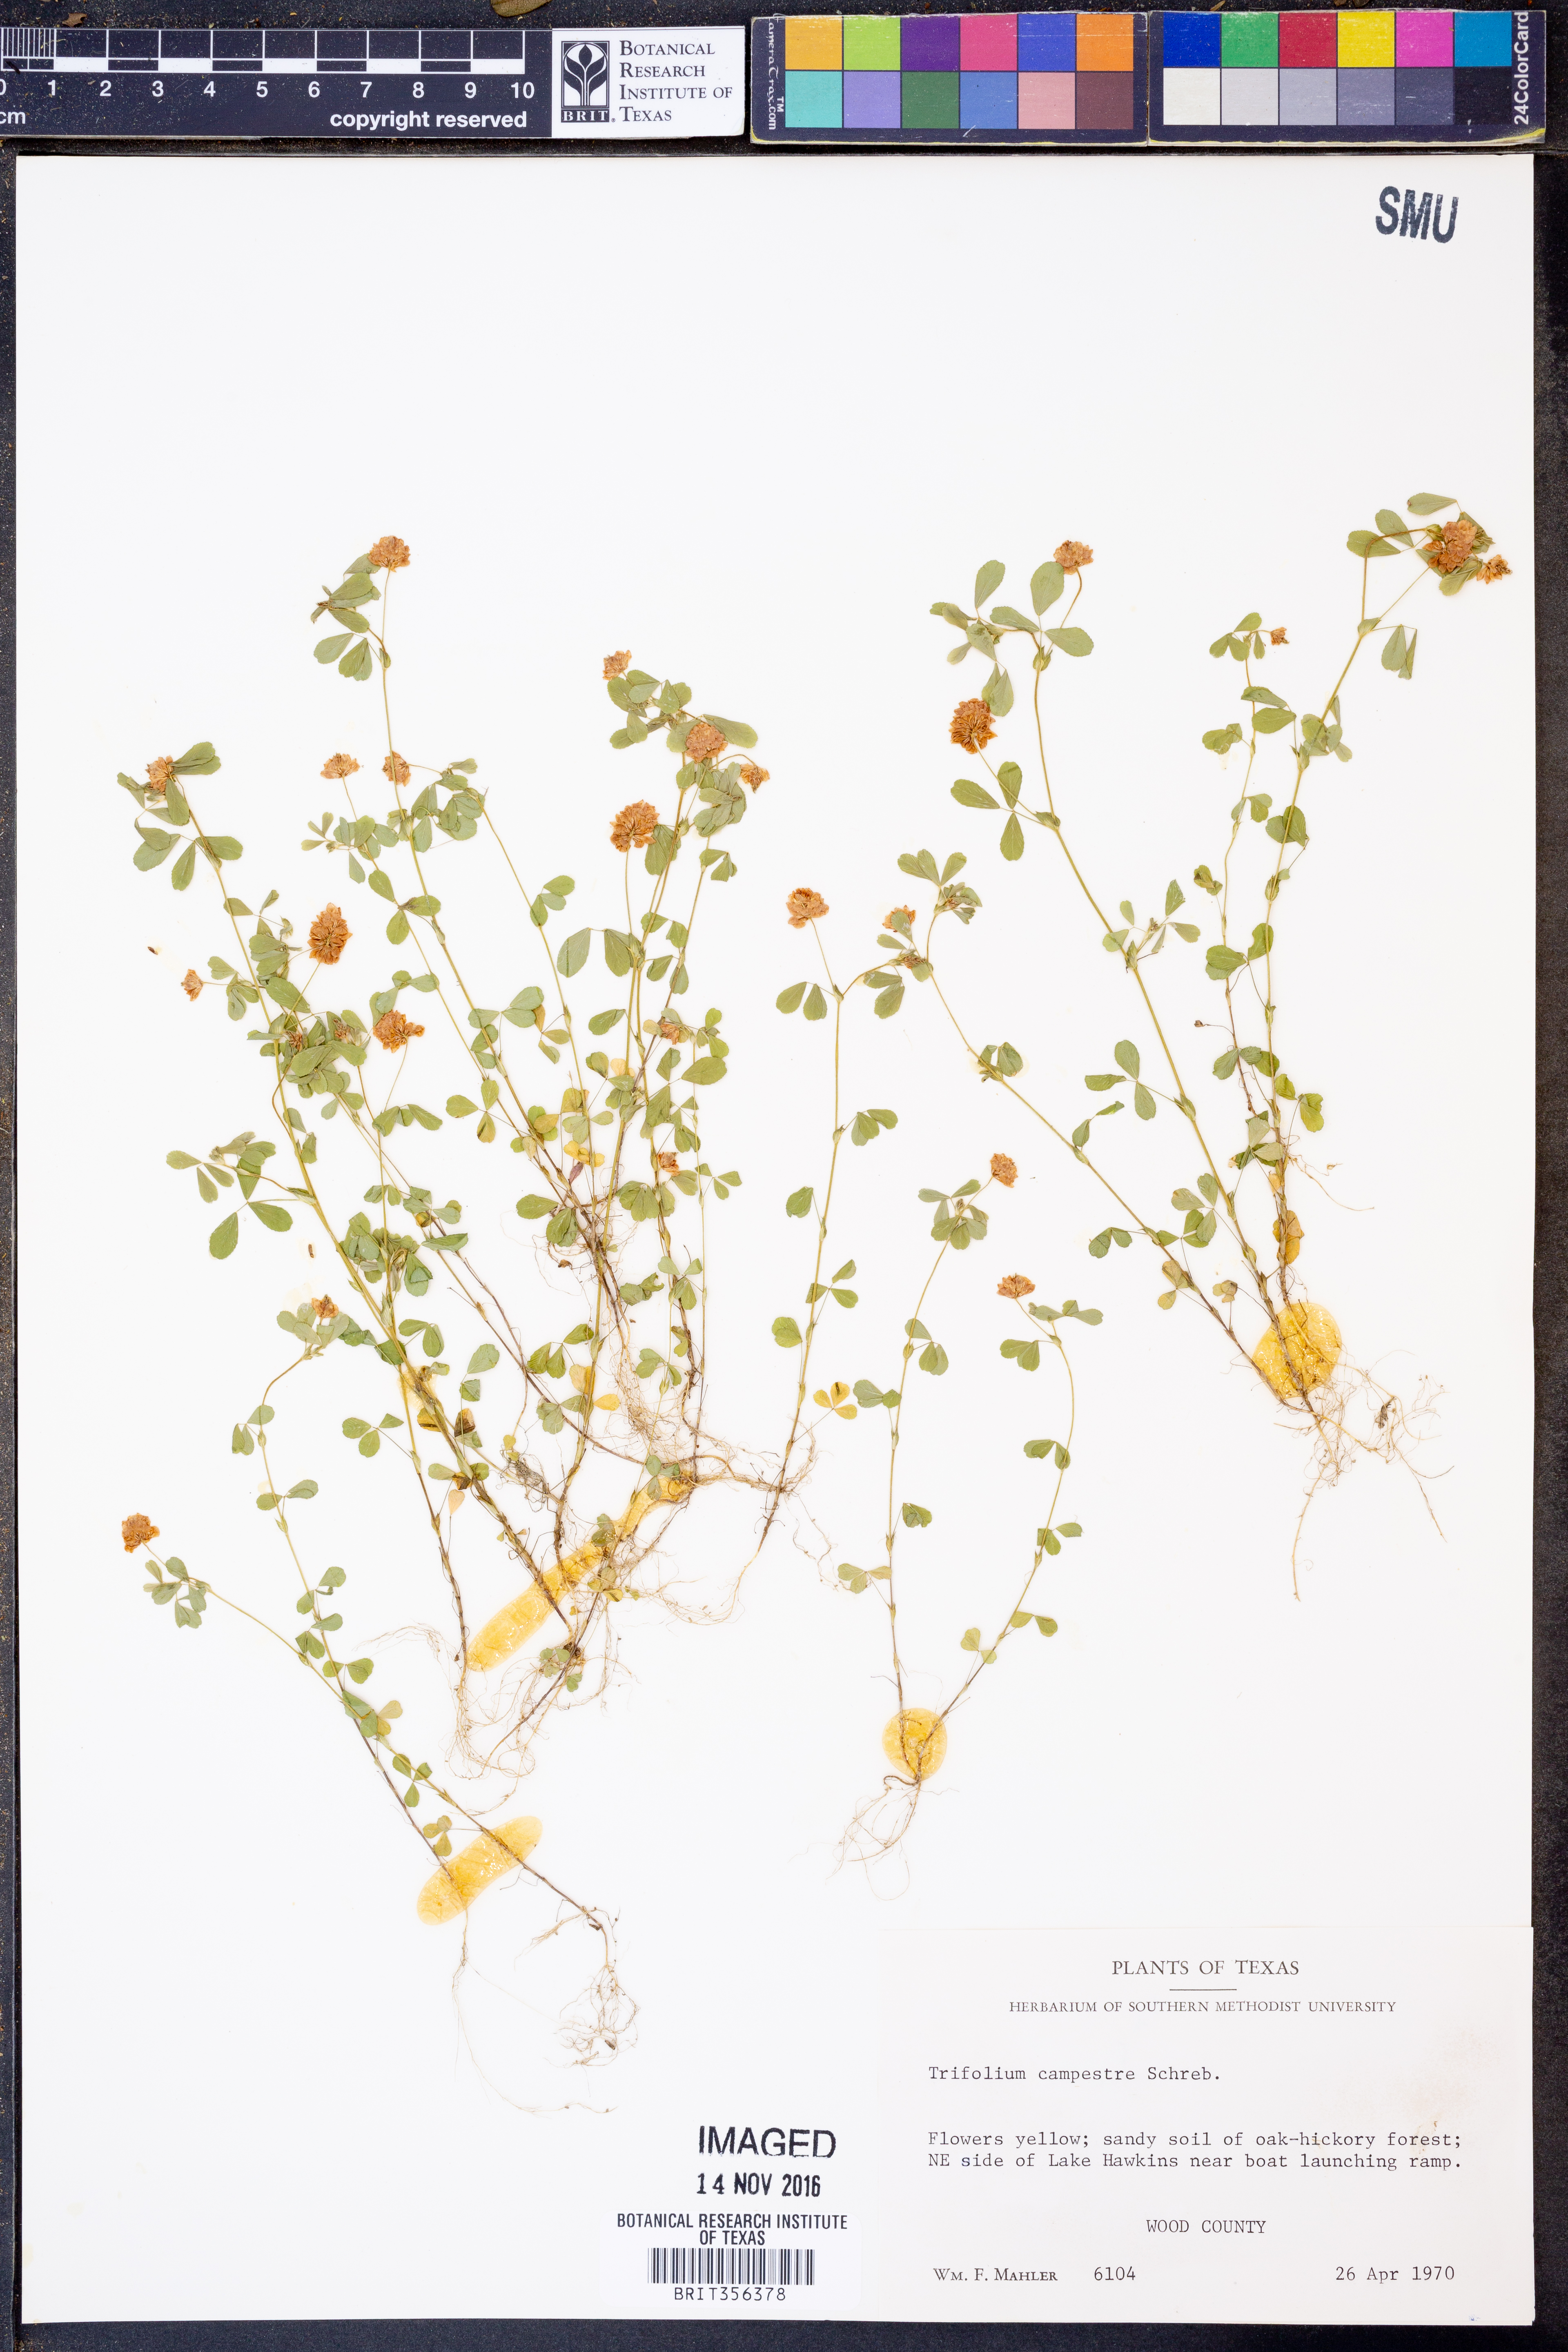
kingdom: Plantae
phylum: Tracheophyta
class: Magnoliopsida
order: Fabales
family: Fabaceae
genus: Trifolium
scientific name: Trifolium campestre
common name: Field clover
